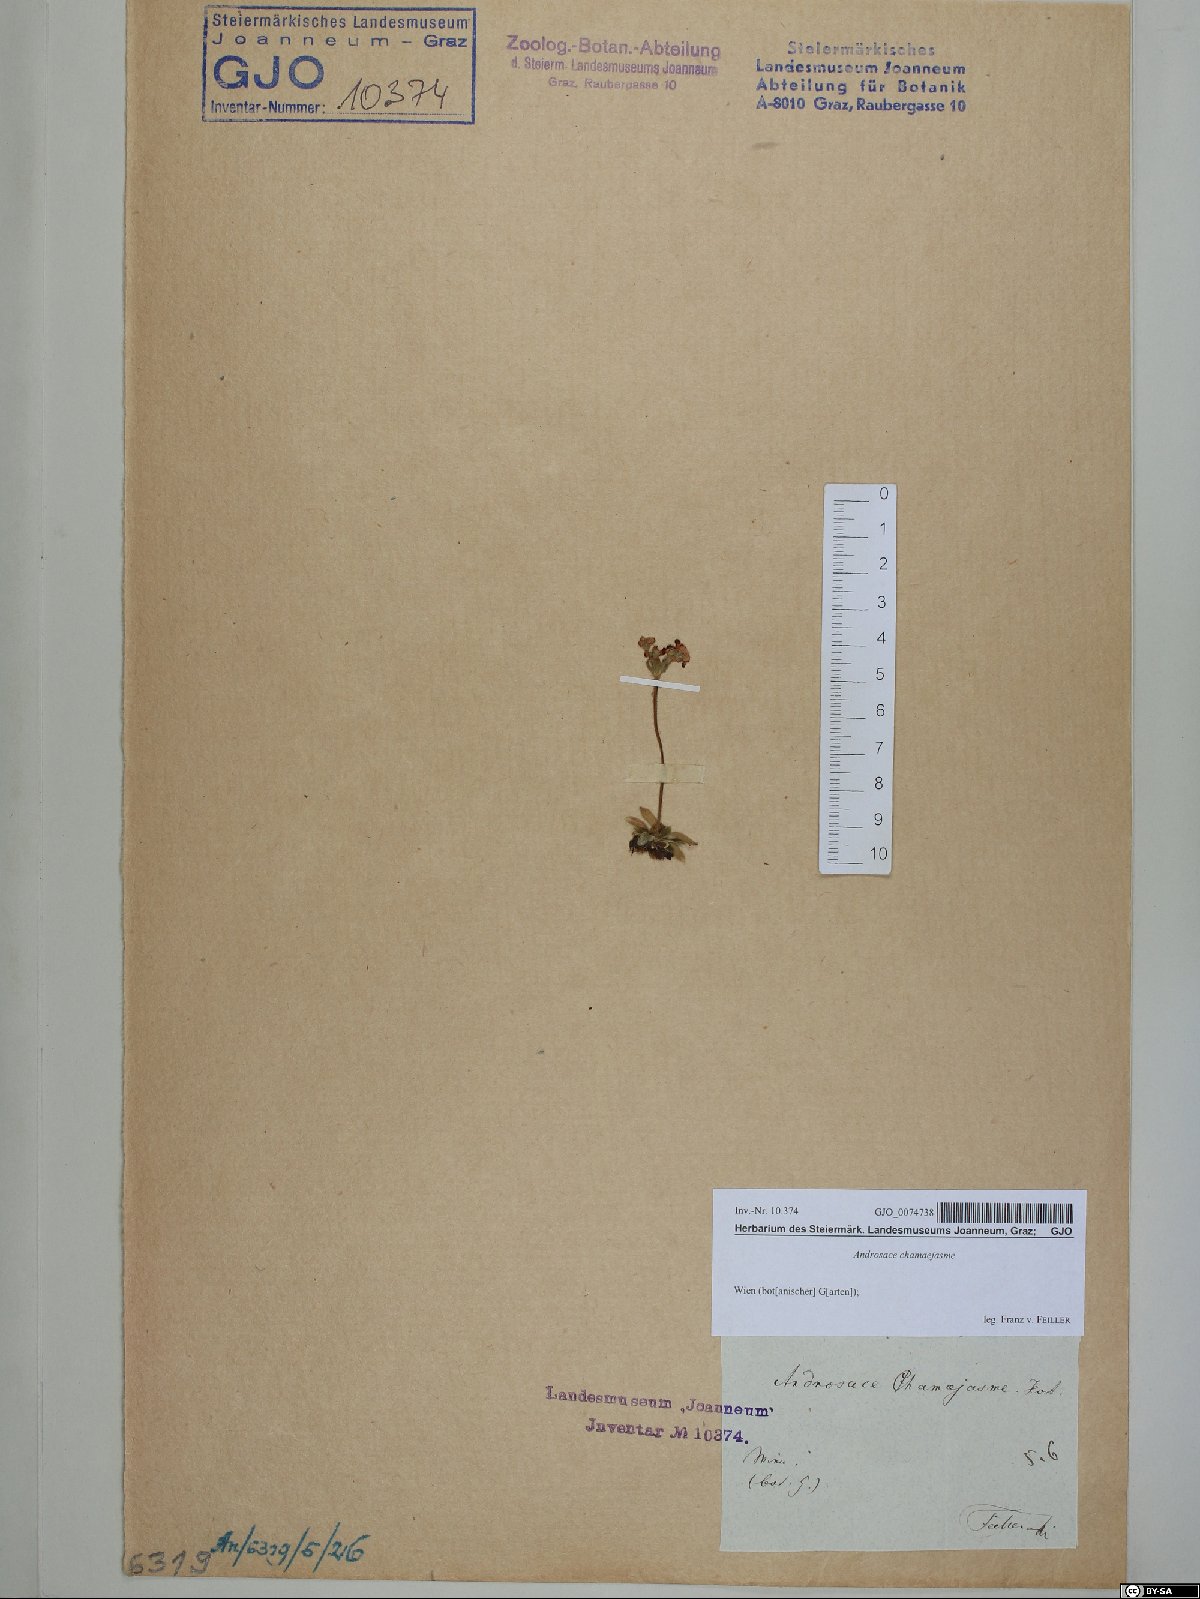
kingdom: Plantae
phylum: Tracheophyta
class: Magnoliopsida
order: Ericales
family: Primulaceae
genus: Androsace
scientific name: Androsace chamaejasme
